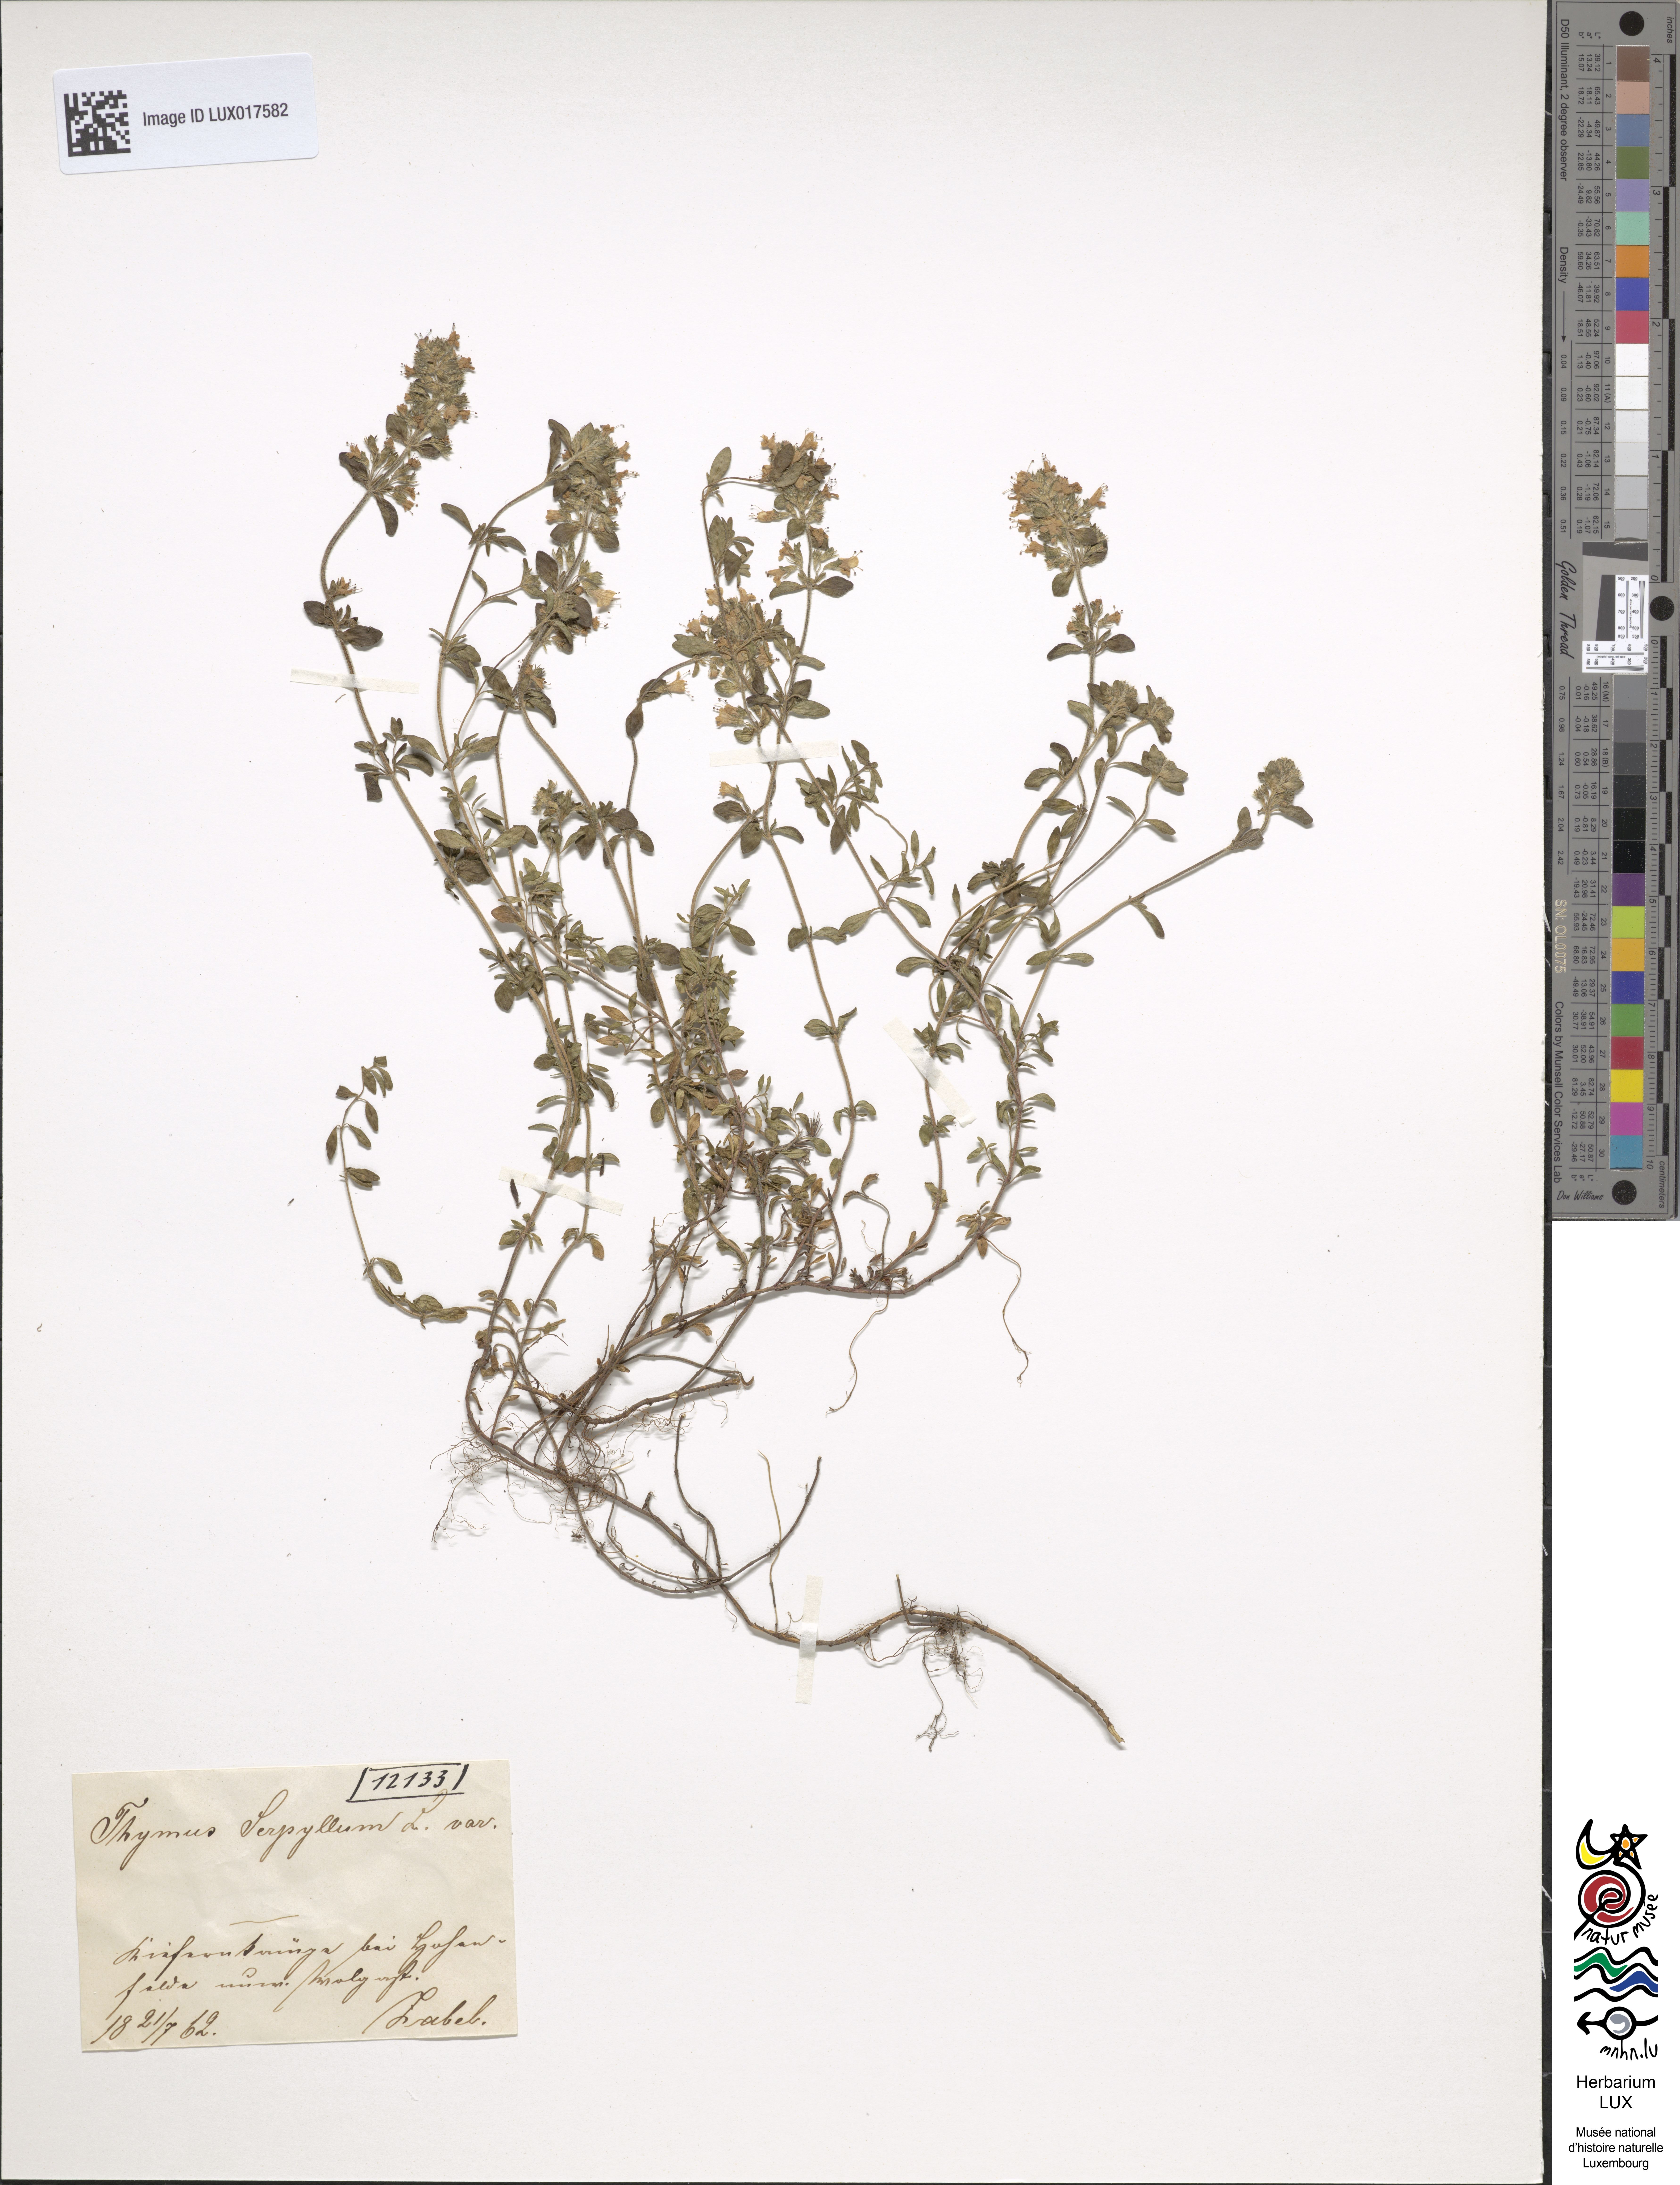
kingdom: Plantae
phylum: Tracheophyta
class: Magnoliopsida
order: Lamiales
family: Lamiaceae
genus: Thymus
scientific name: Thymus serpyllum
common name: Breckland thyme
